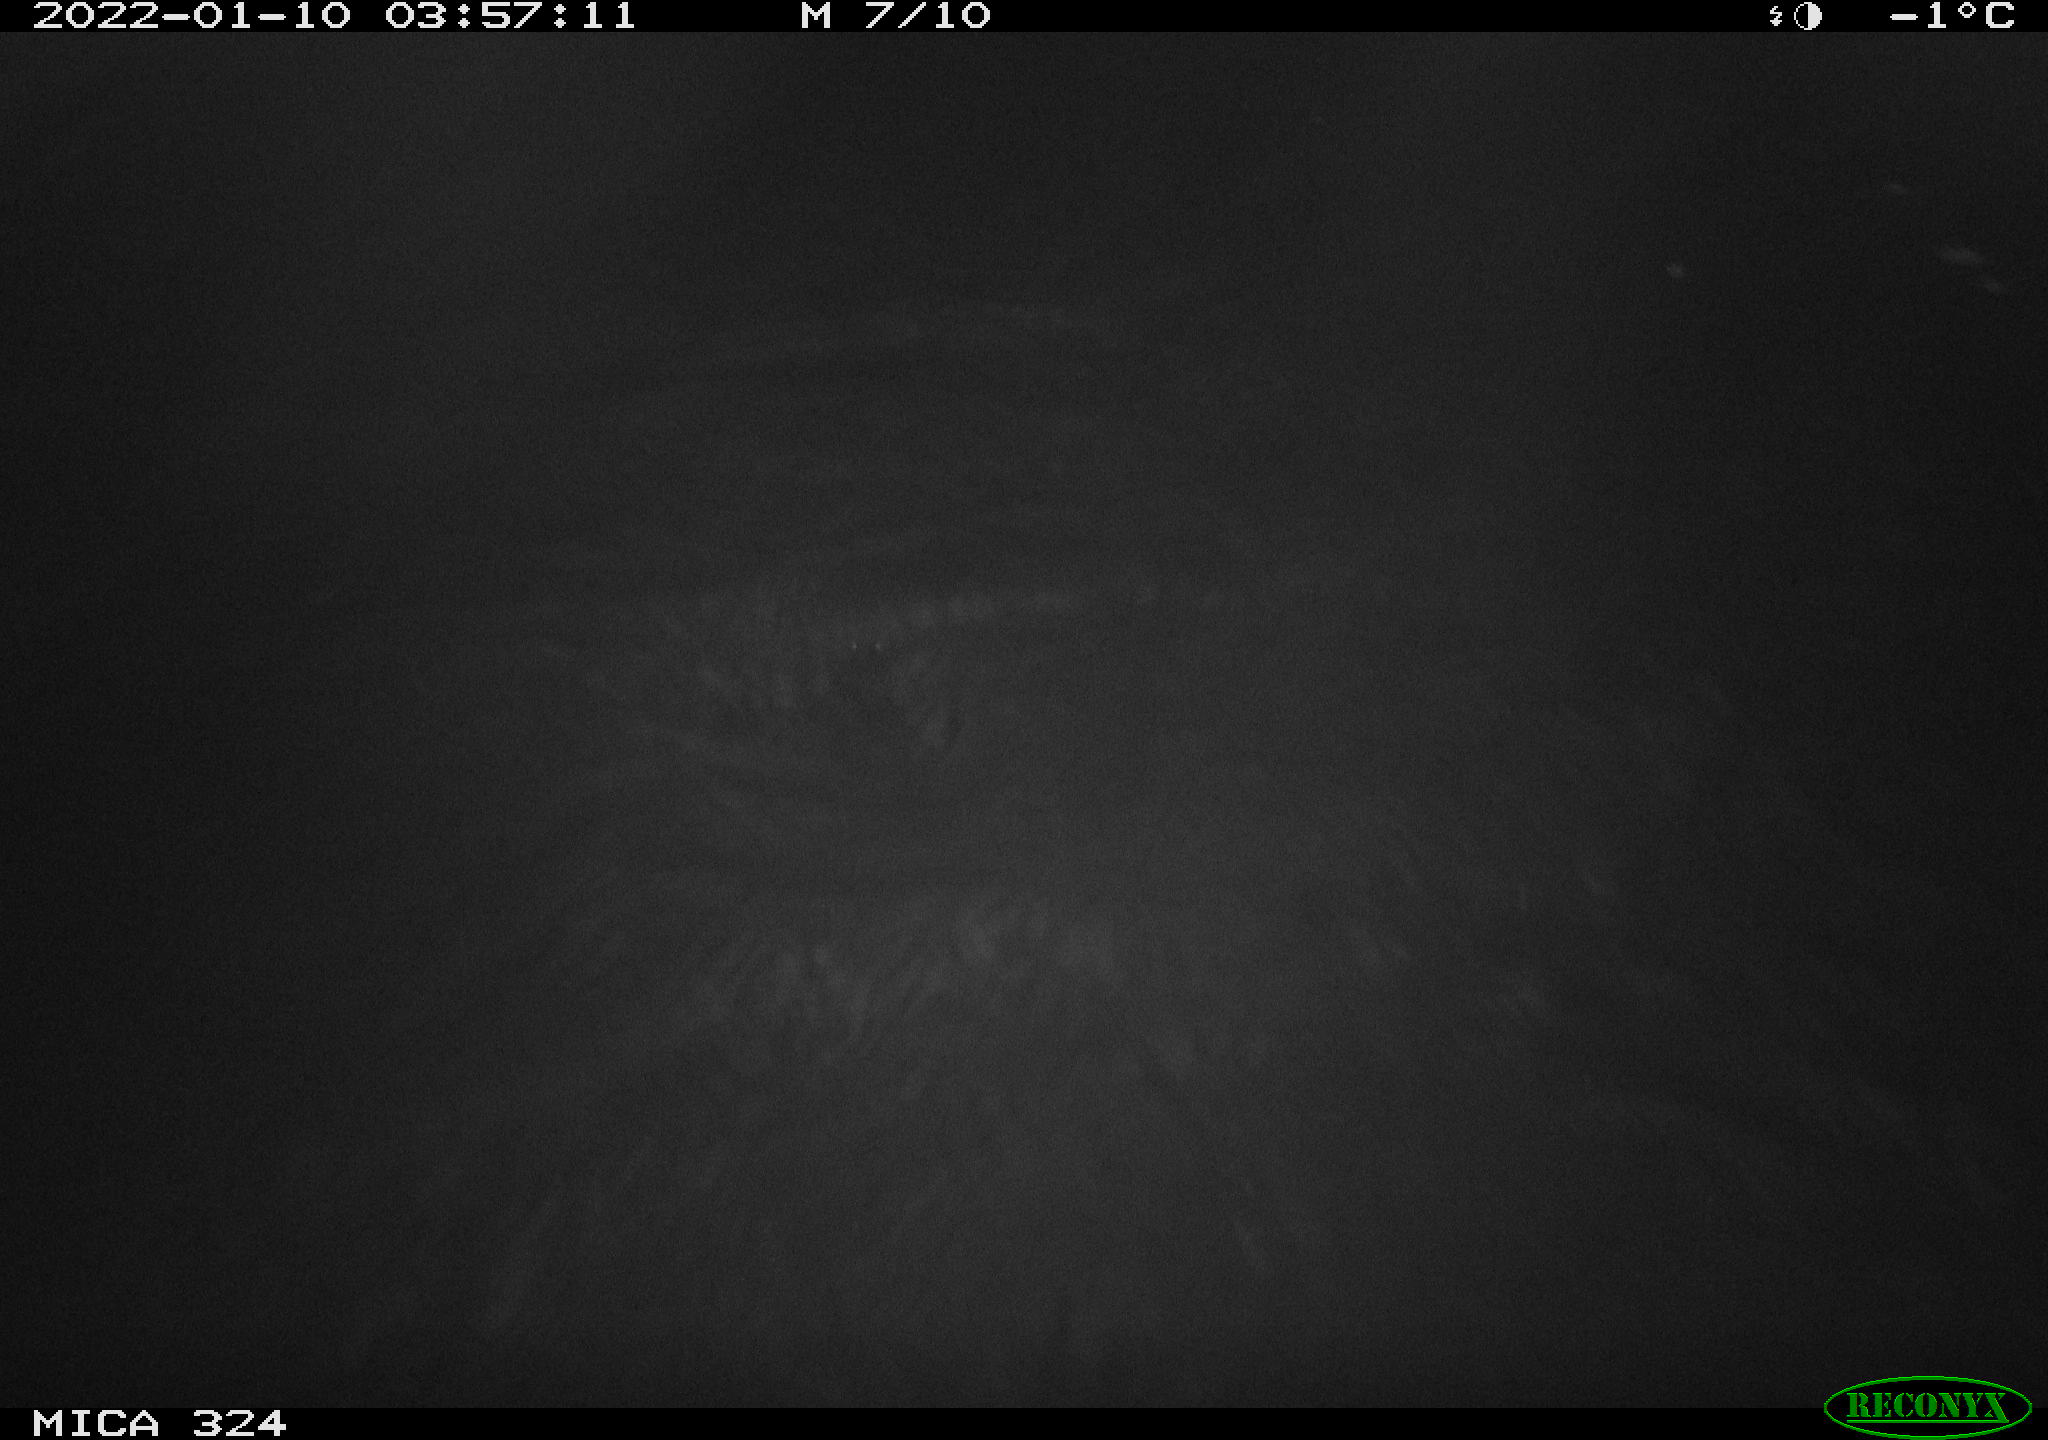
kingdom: Animalia
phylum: Chordata
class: Mammalia
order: Rodentia
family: Cricetidae
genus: Ondatra
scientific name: Ondatra zibethicus
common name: Muskrat
